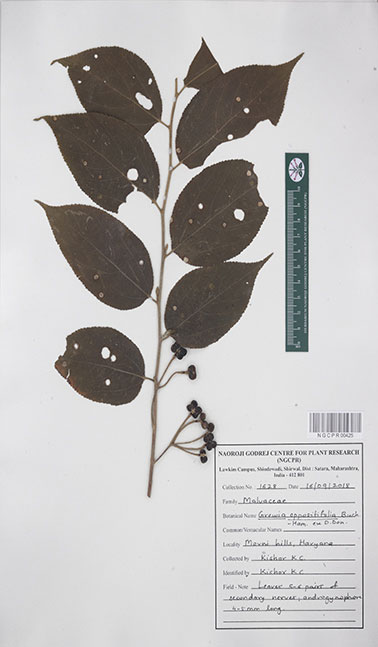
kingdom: Plantae
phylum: Tracheophyta
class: Magnoliopsida
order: Malvales
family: Malvaceae
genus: Grewia
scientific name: Grewia oppositifolia
